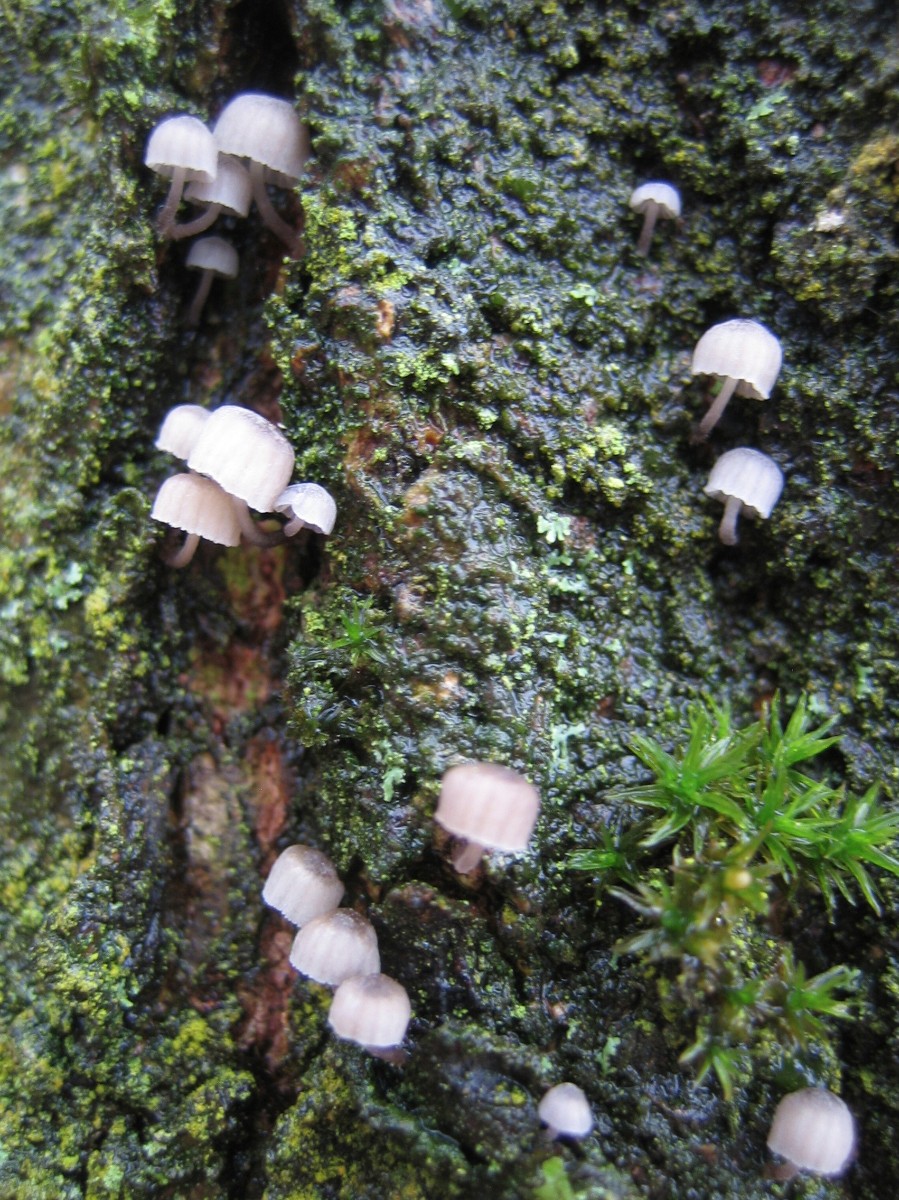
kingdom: Fungi
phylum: Basidiomycota
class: Agaricomycetes
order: Agaricales
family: Mycenaceae
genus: Mycena
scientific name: Mycena
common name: huesvamp
